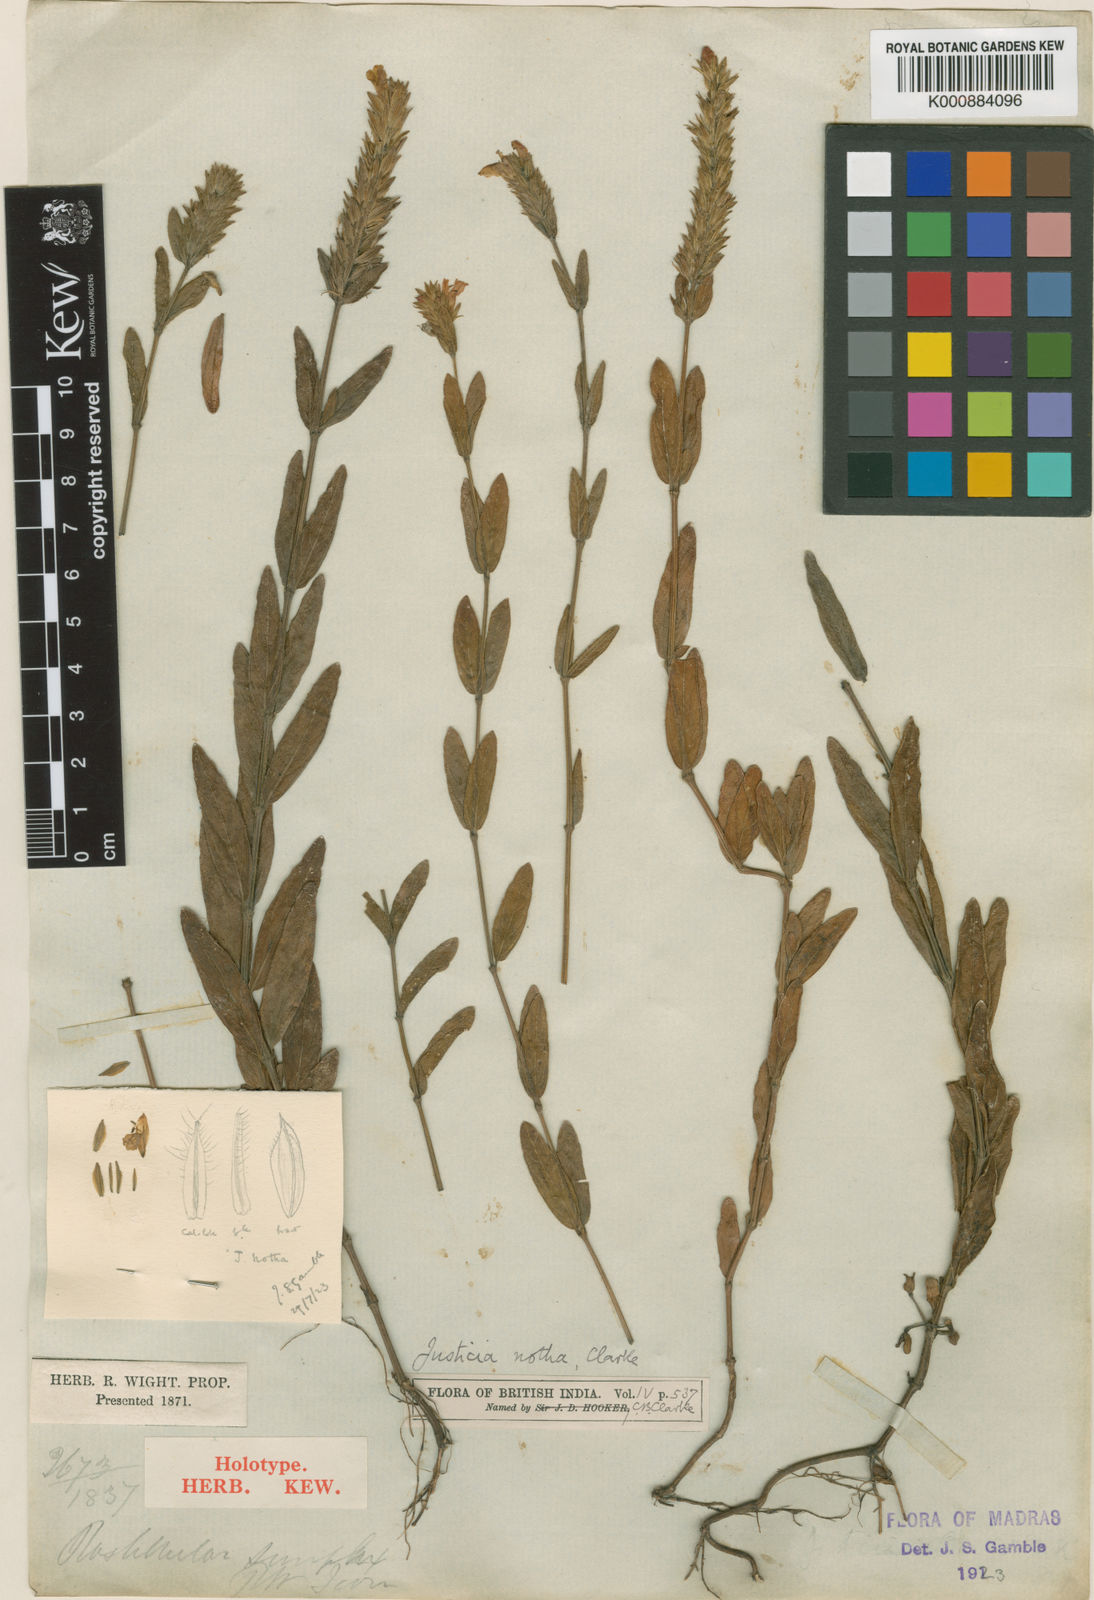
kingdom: Plantae
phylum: Tracheophyta
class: Magnoliopsida
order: Lamiales
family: Acanthaceae
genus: Rostellularia
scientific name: Rostellularia simplex
